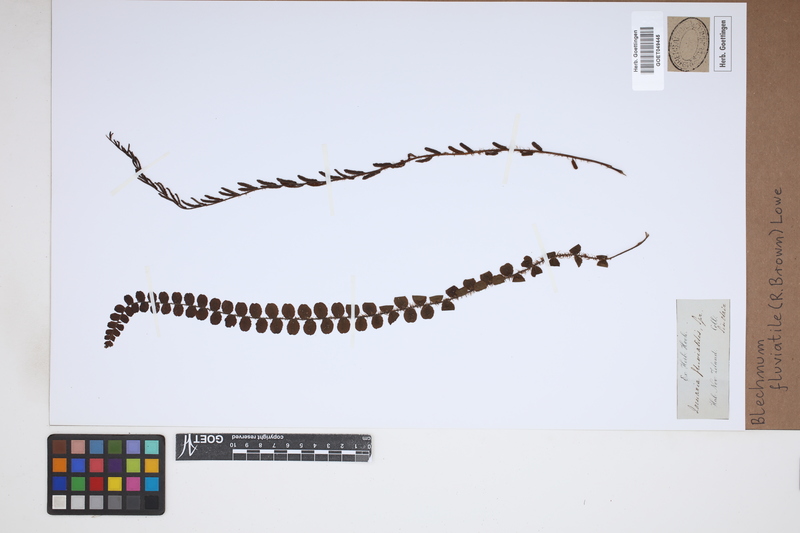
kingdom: Plantae
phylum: Tracheophyta
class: Polypodiopsida
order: Polypodiales
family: Blechnaceae
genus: Cranfillia
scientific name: Cranfillia fluviatilis
